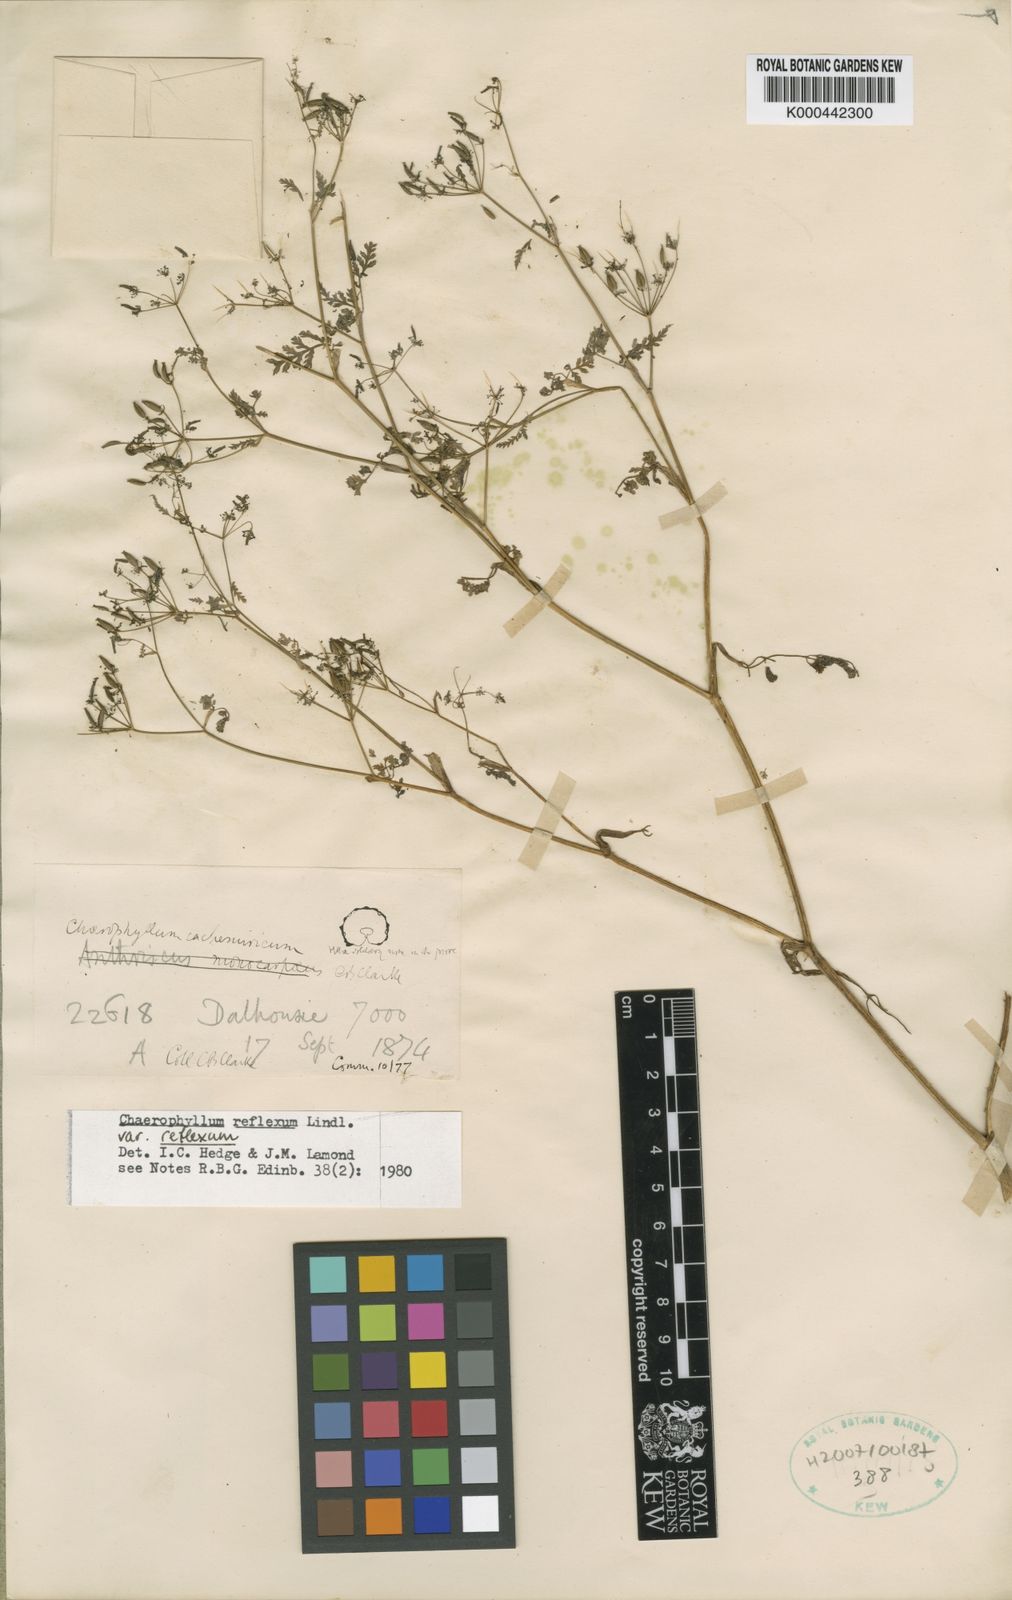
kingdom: Plantae
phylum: Tracheophyta
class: Magnoliopsida
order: Apiales
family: Apiaceae
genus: Chaerophyllum
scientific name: Chaerophyllum reflexum
